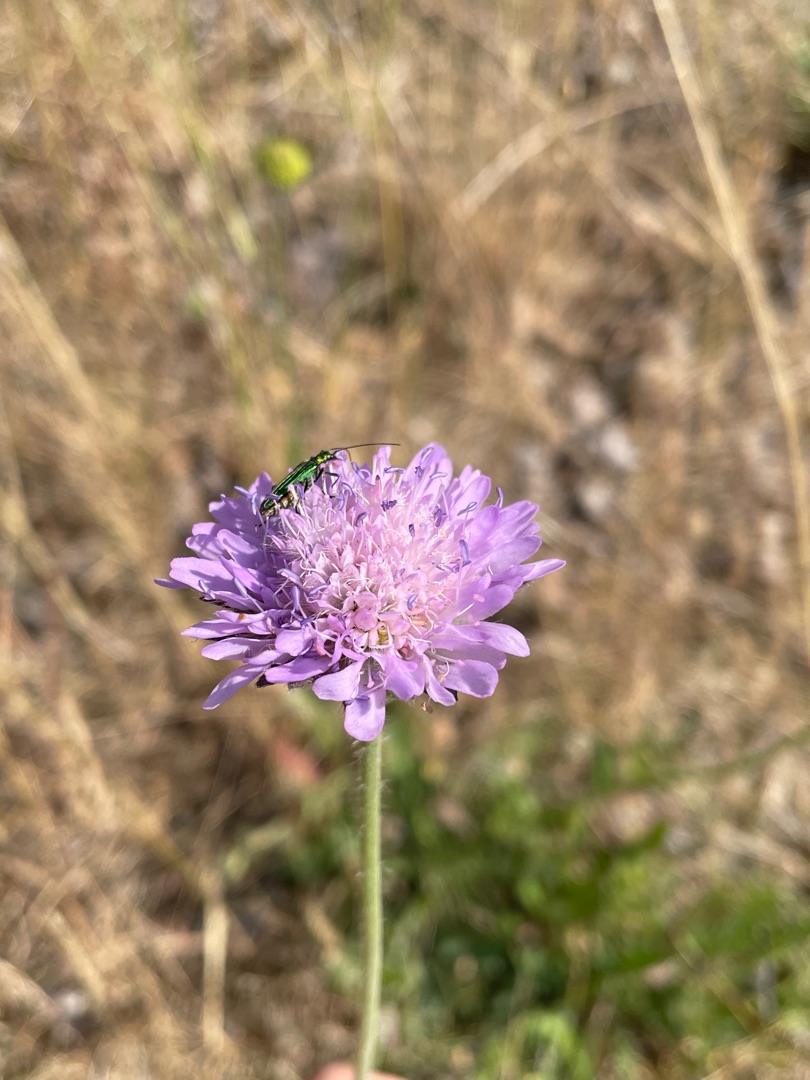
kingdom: Plantae
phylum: Tracheophyta
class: Magnoliopsida
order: Dipsacales
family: Caprifoliaceae
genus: Knautia
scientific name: Knautia arvensis
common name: Blåhat
